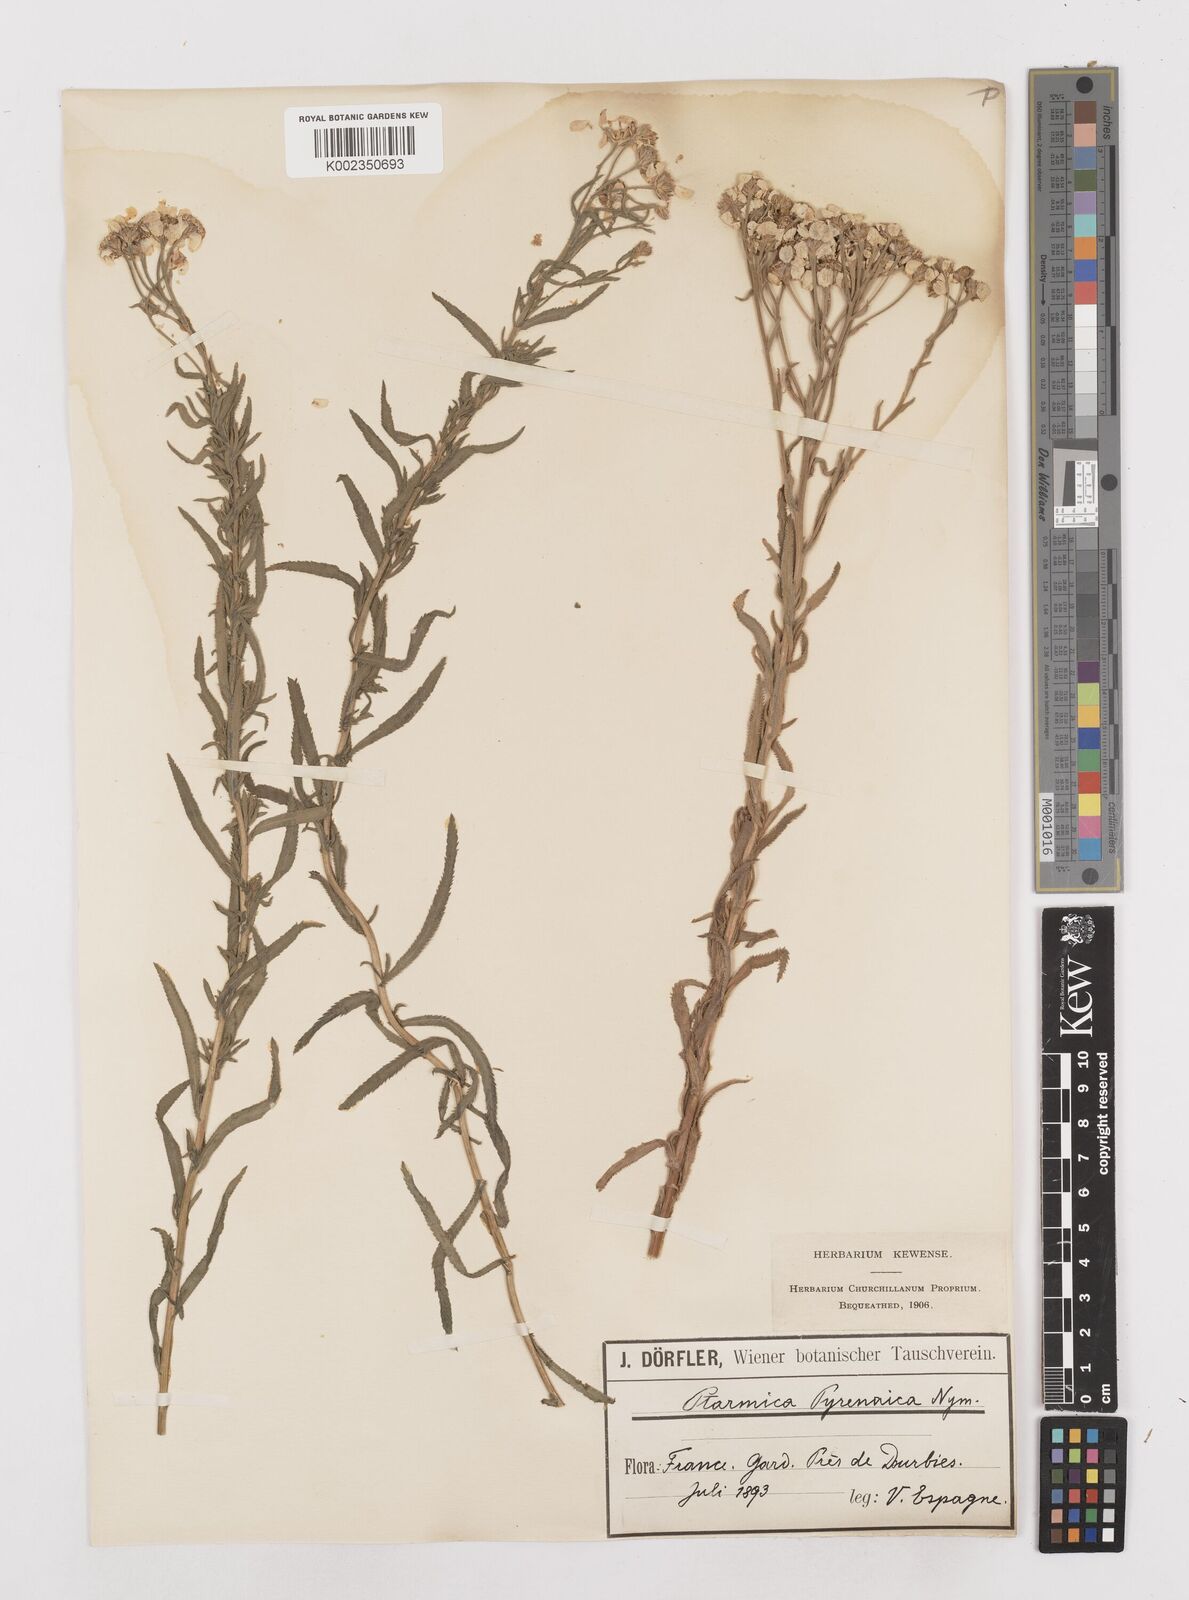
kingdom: Plantae
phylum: Tracheophyta
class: Magnoliopsida
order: Asterales
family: Asteraceae
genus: Achillea
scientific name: Achillea pyrenaica
